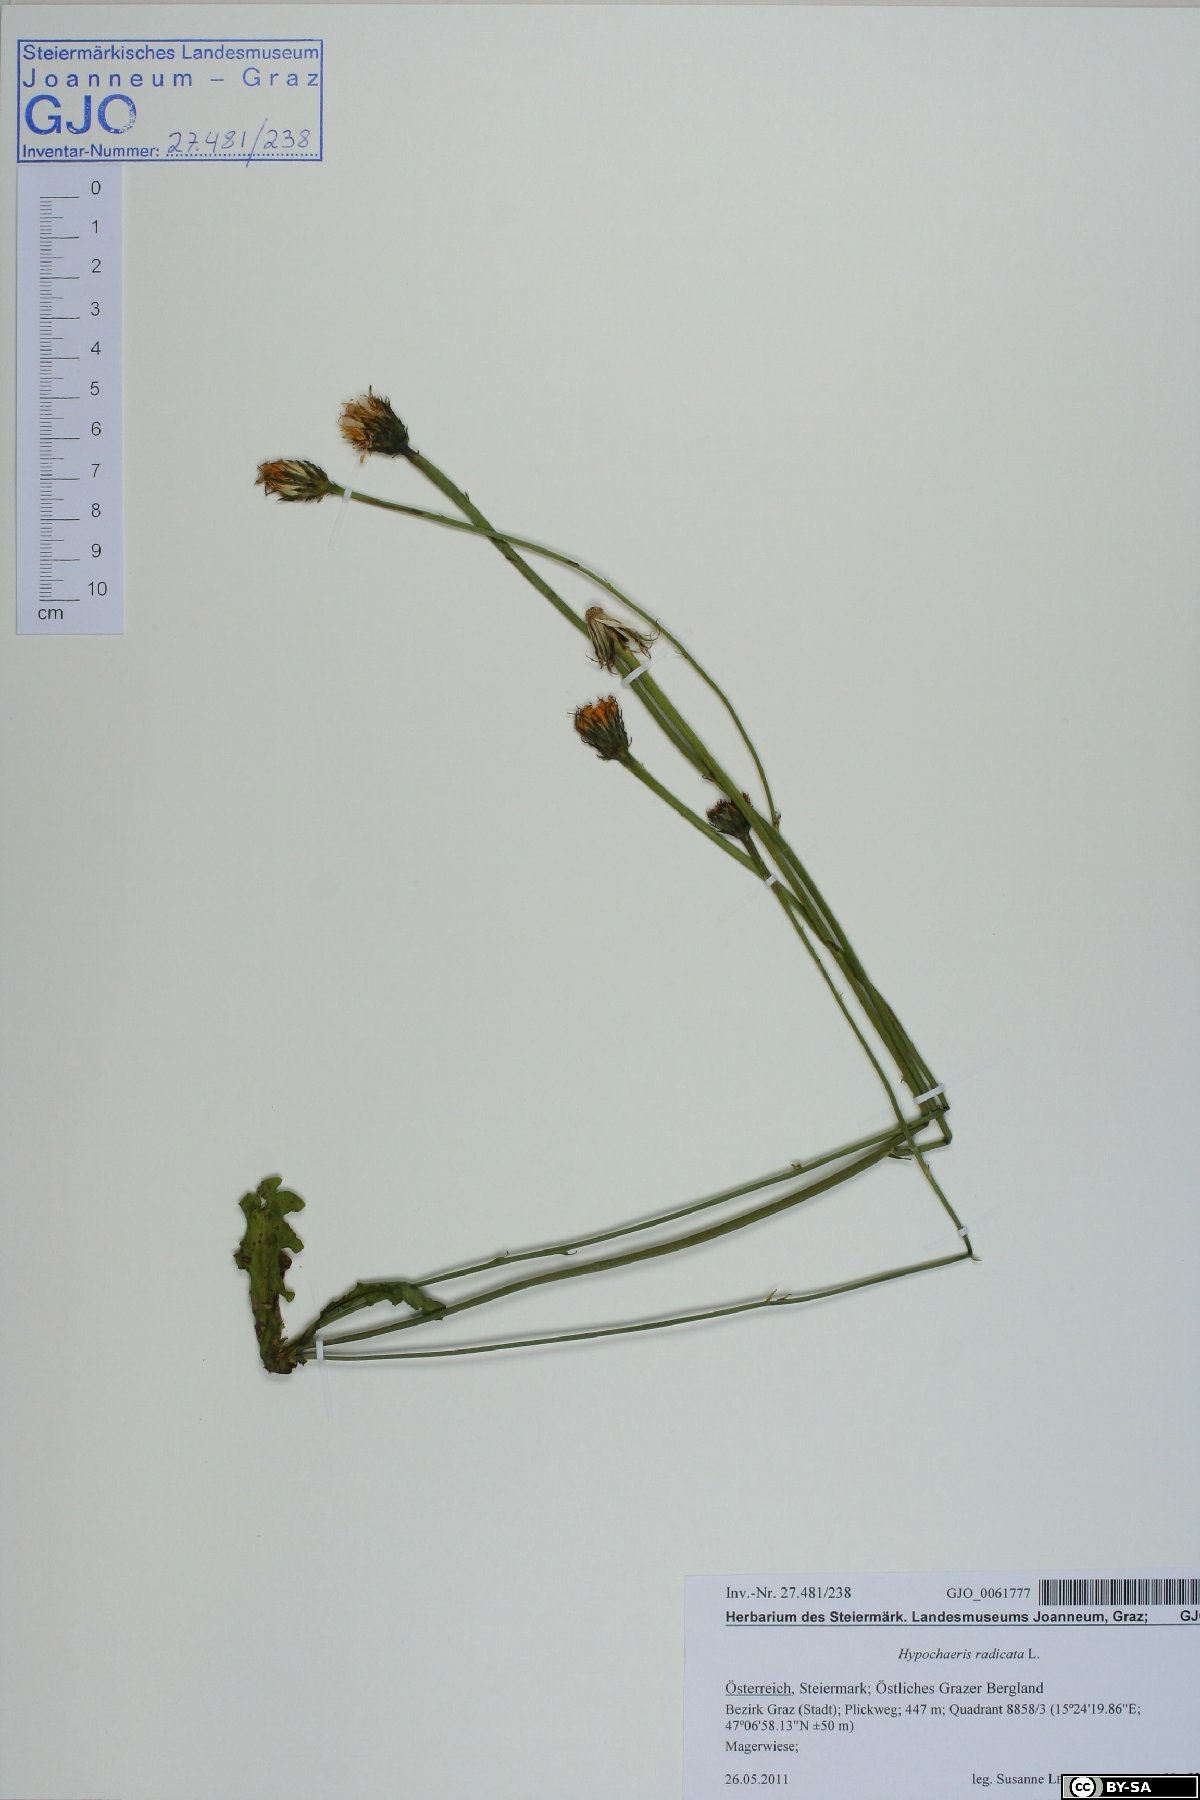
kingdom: Plantae
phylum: Tracheophyta
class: Magnoliopsida
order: Asterales
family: Asteraceae
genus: Hypochaeris
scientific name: Hypochaeris radicata
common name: Flatweed
